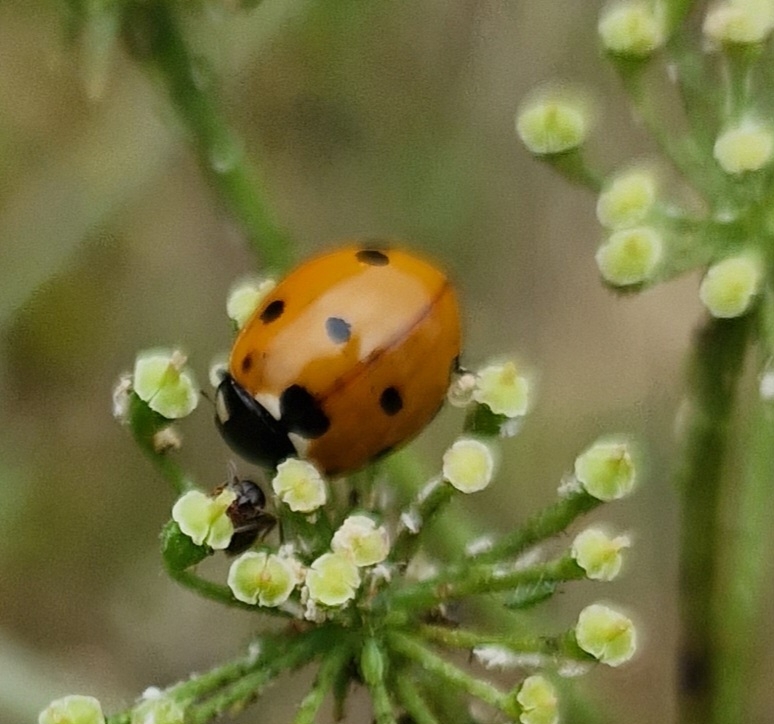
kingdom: Animalia
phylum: Arthropoda
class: Insecta
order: Coleoptera
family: Coccinellidae
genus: Coccinella
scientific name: Coccinella septempunctata
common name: Syvplettet mariehøne
